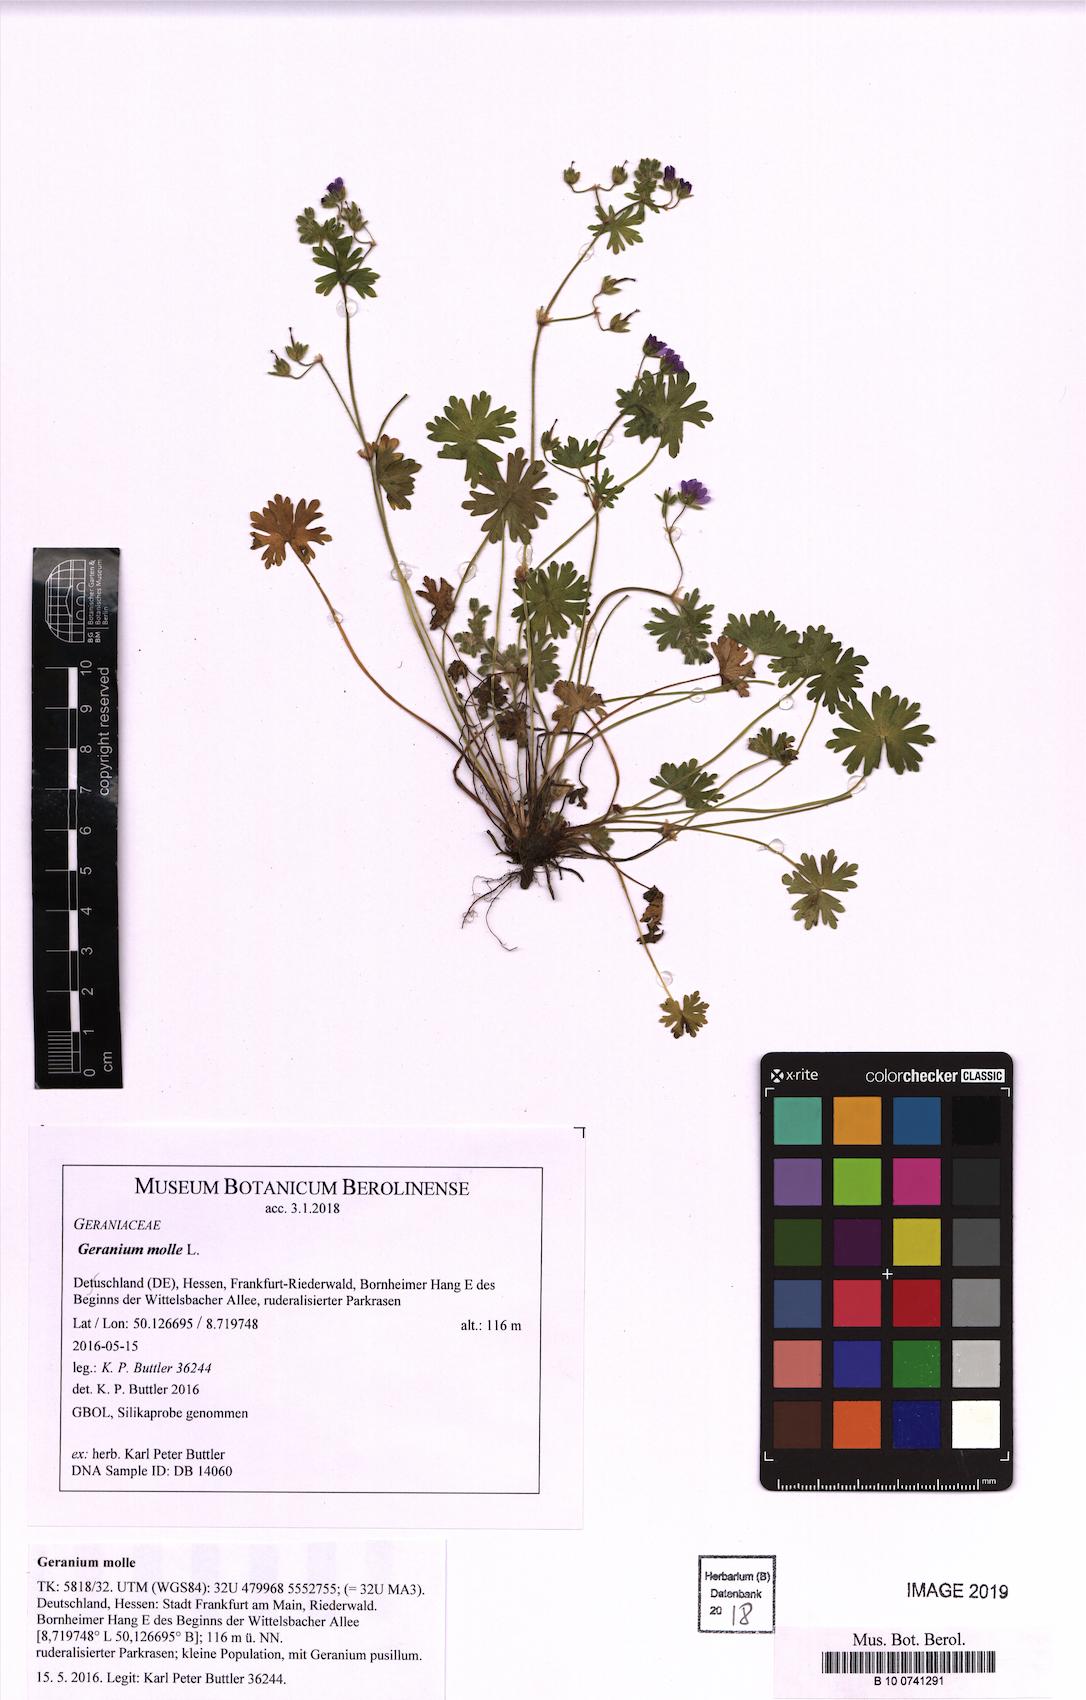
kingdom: Plantae
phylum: Tracheophyta
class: Magnoliopsida
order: Geraniales
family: Geraniaceae
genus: Geranium
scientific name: Geranium molle
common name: Dove's-foot crane's-bill
